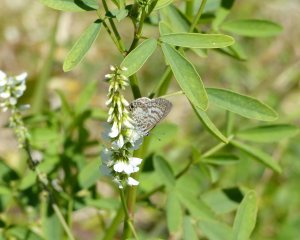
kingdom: Animalia
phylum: Arthropoda
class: Insecta
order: Lepidoptera
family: Lycaenidae
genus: Leptotes
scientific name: Leptotes cassius
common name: Cassius Blue
